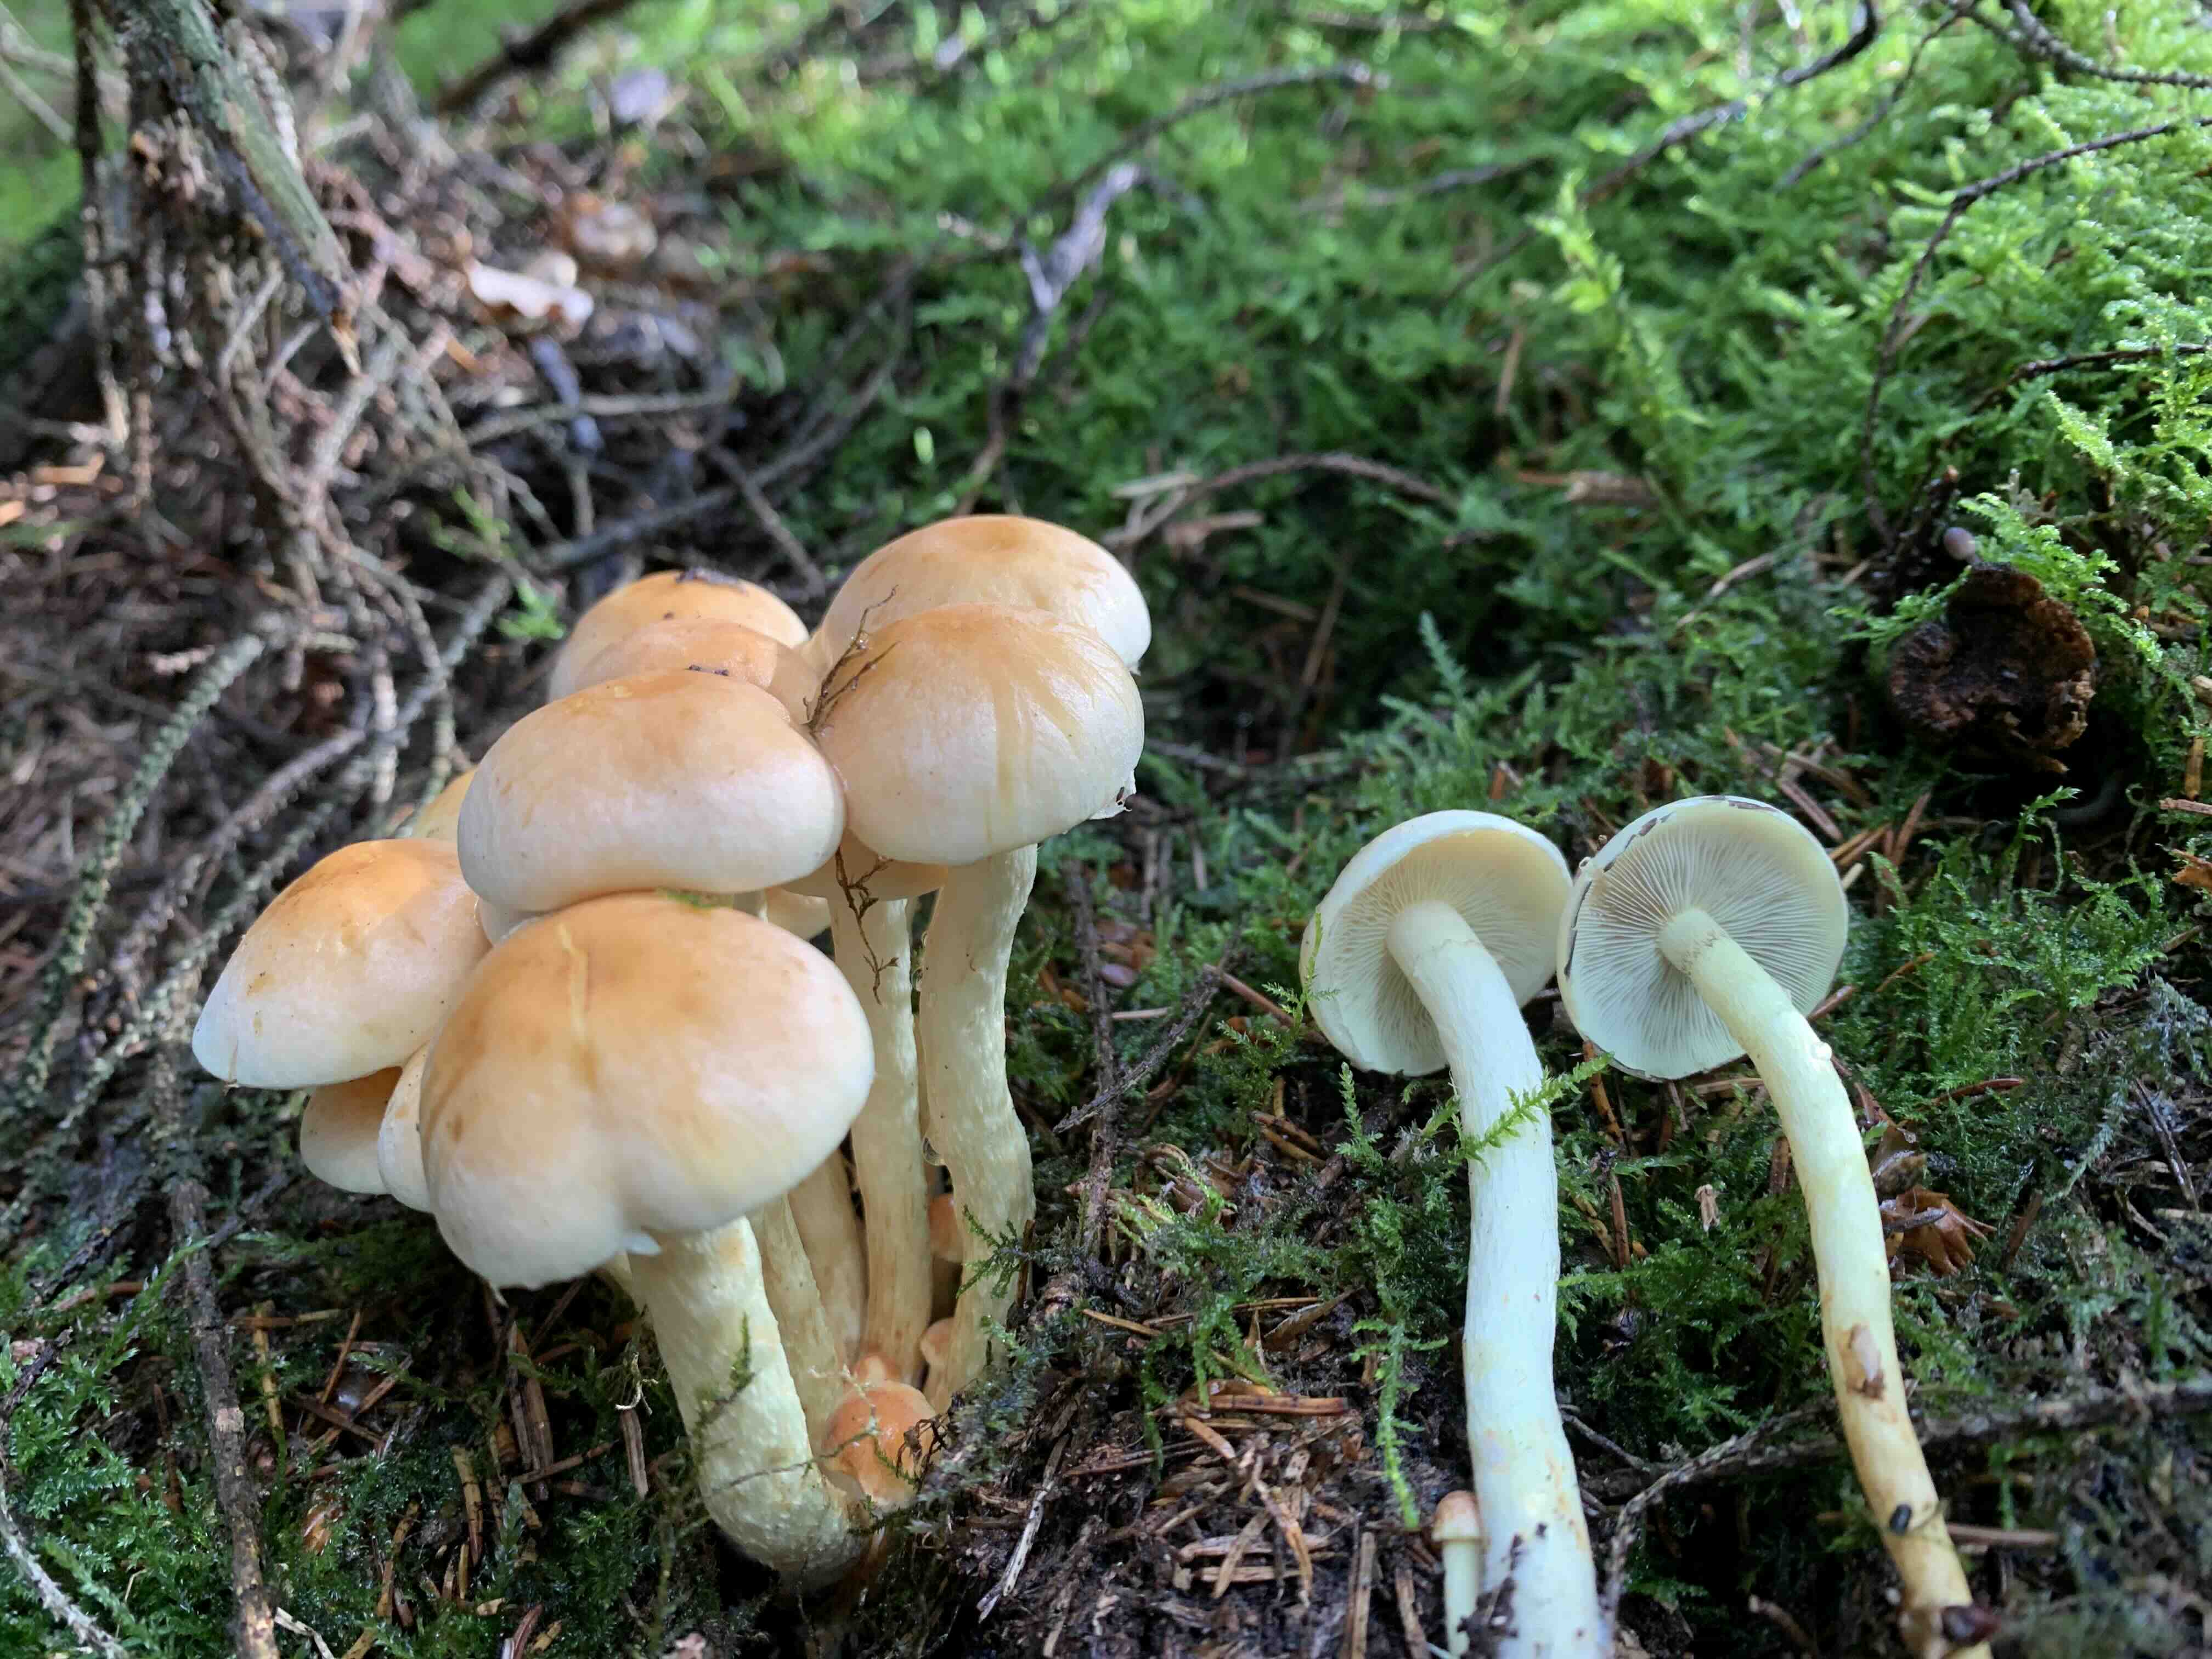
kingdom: Fungi
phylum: Basidiomycota
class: Agaricomycetes
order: Agaricales
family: Strophariaceae
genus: Hypholoma
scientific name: Hypholoma fasciculare
